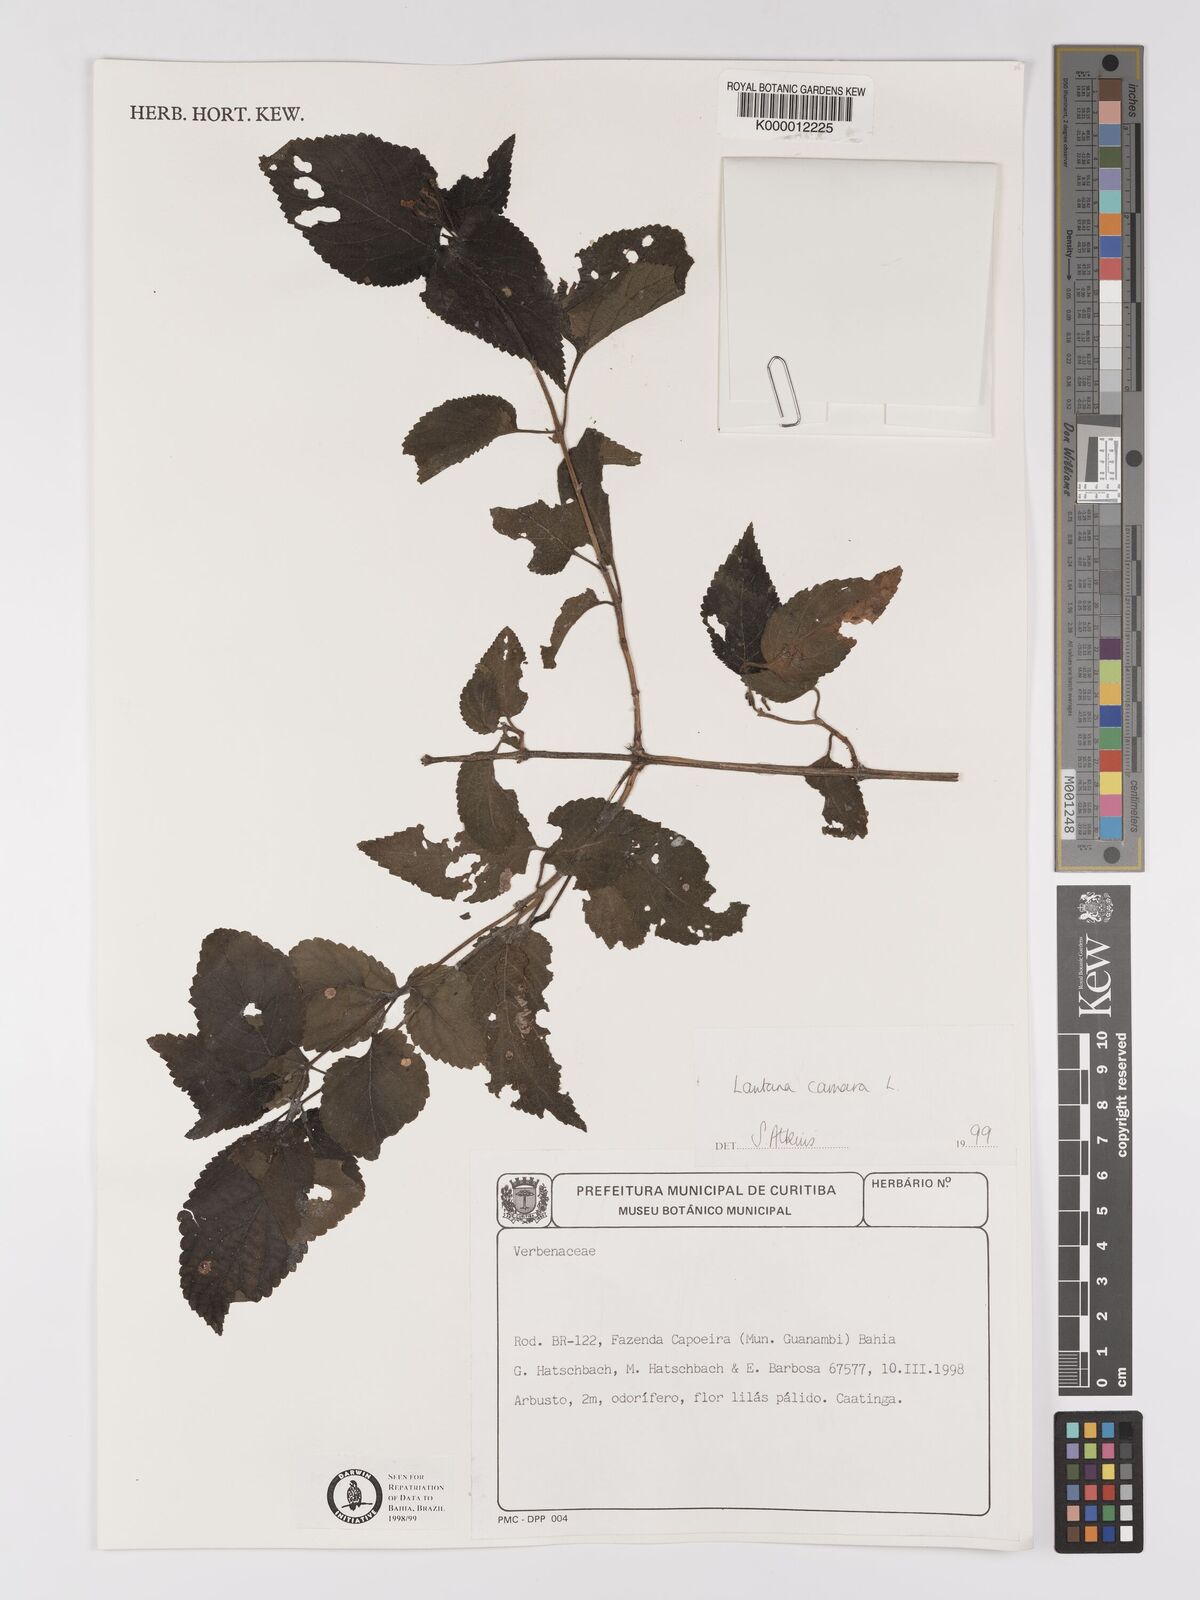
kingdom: Plantae
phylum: Tracheophyta
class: Magnoliopsida
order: Lamiales
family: Verbenaceae
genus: Lantana
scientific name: Lantana camara
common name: Lantana
